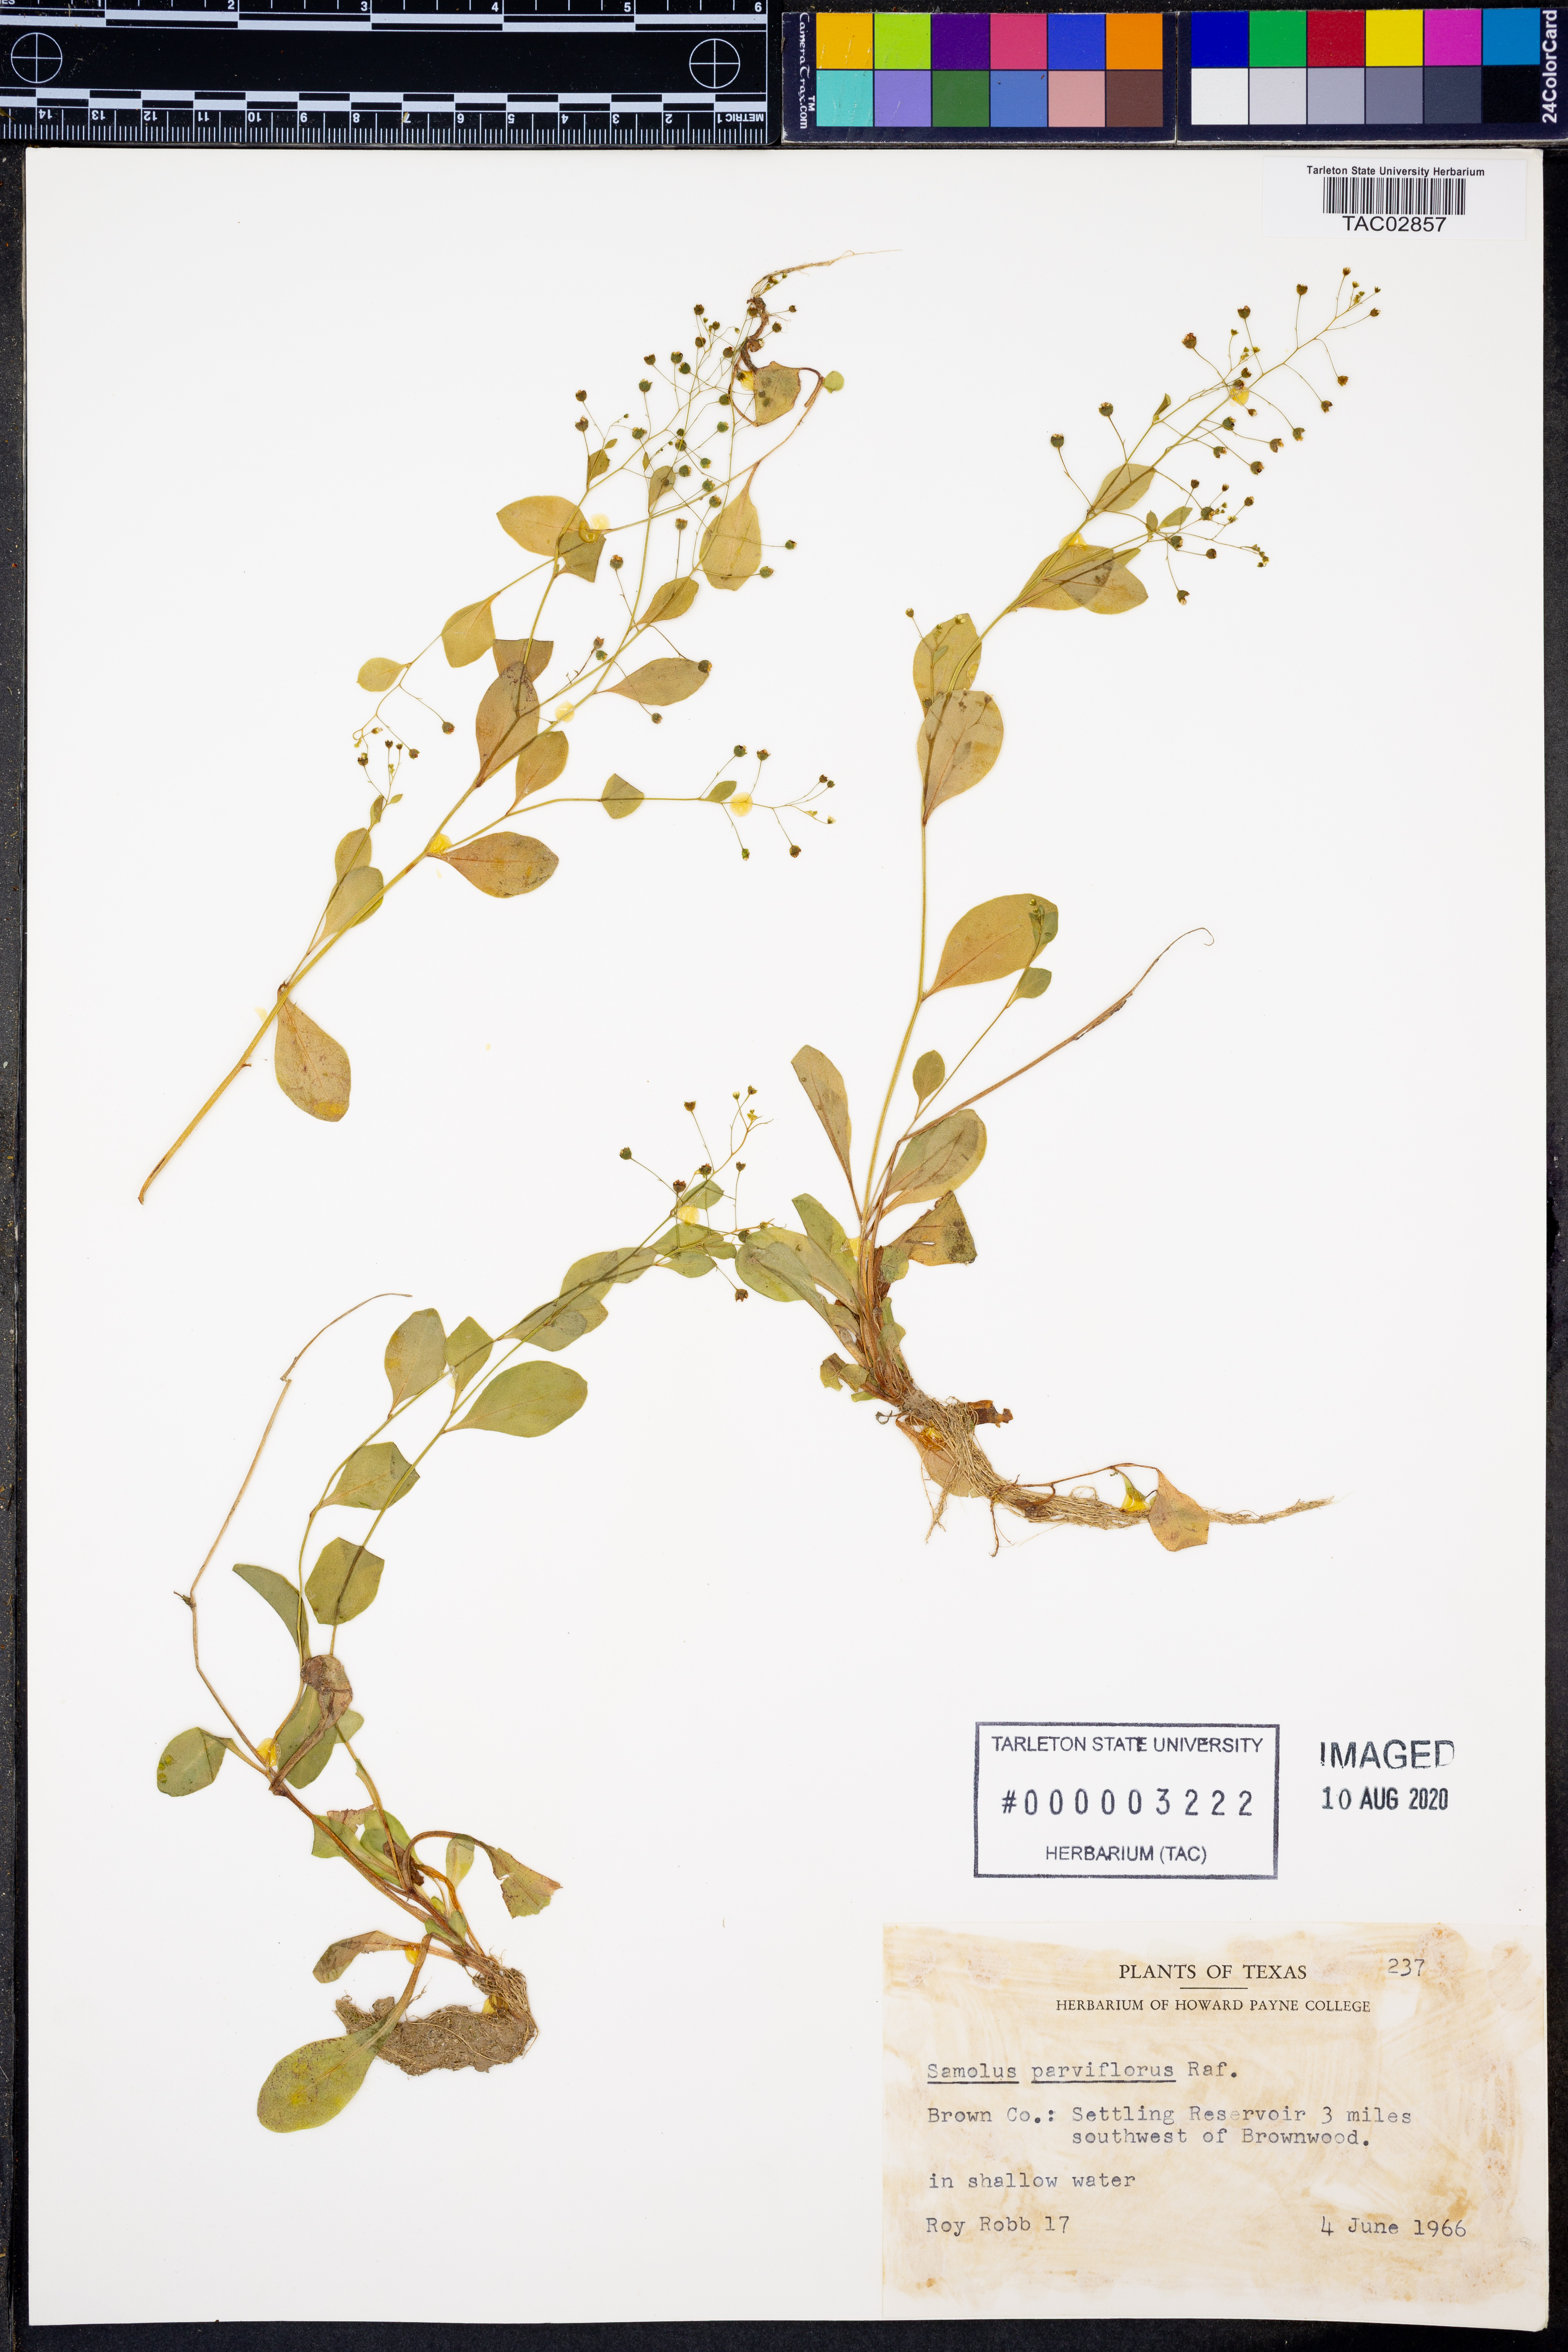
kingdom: Plantae
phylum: Tracheophyta
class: Magnoliopsida
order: Ericales
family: Primulaceae
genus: Samolus
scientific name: Samolus parviflorus
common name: False water pimpernel
